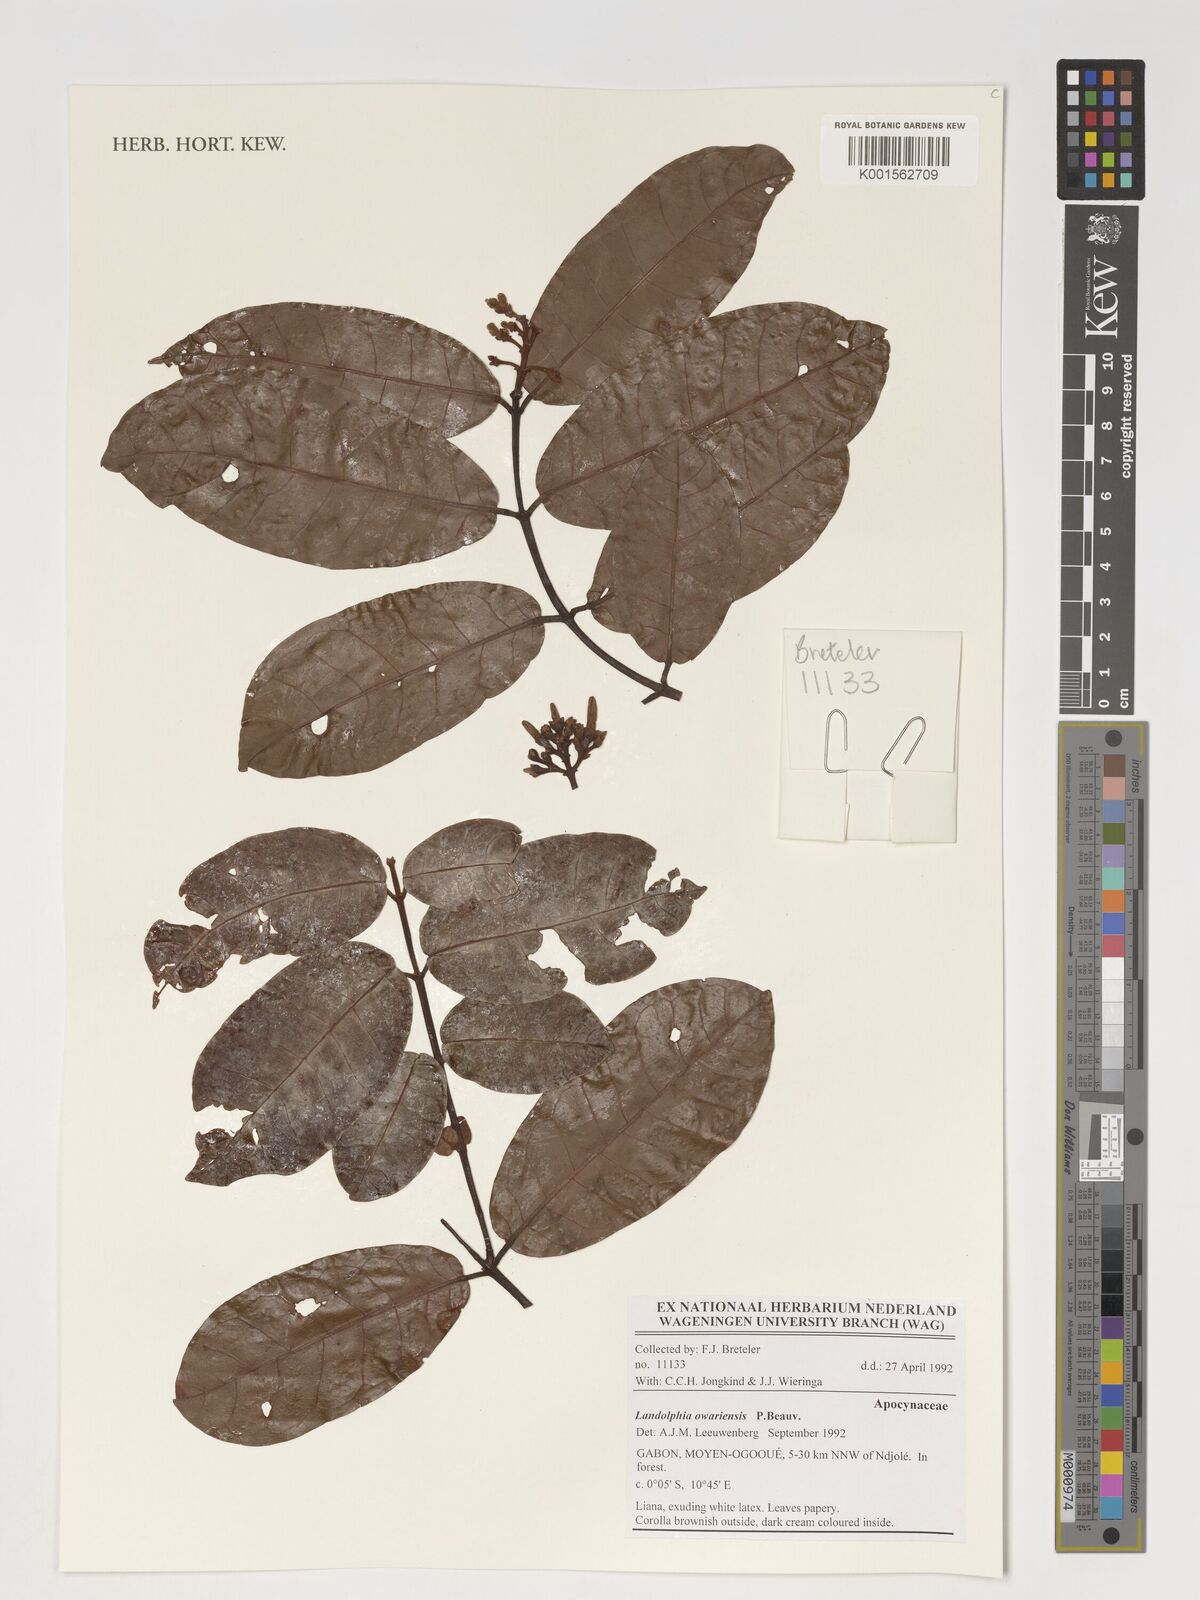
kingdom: Plantae
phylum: Tracheophyta
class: Magnoliopsida
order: Gentianales
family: Apocynaceae
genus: Landolphia
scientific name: Landolphia owariensis
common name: White-ball-rubber
